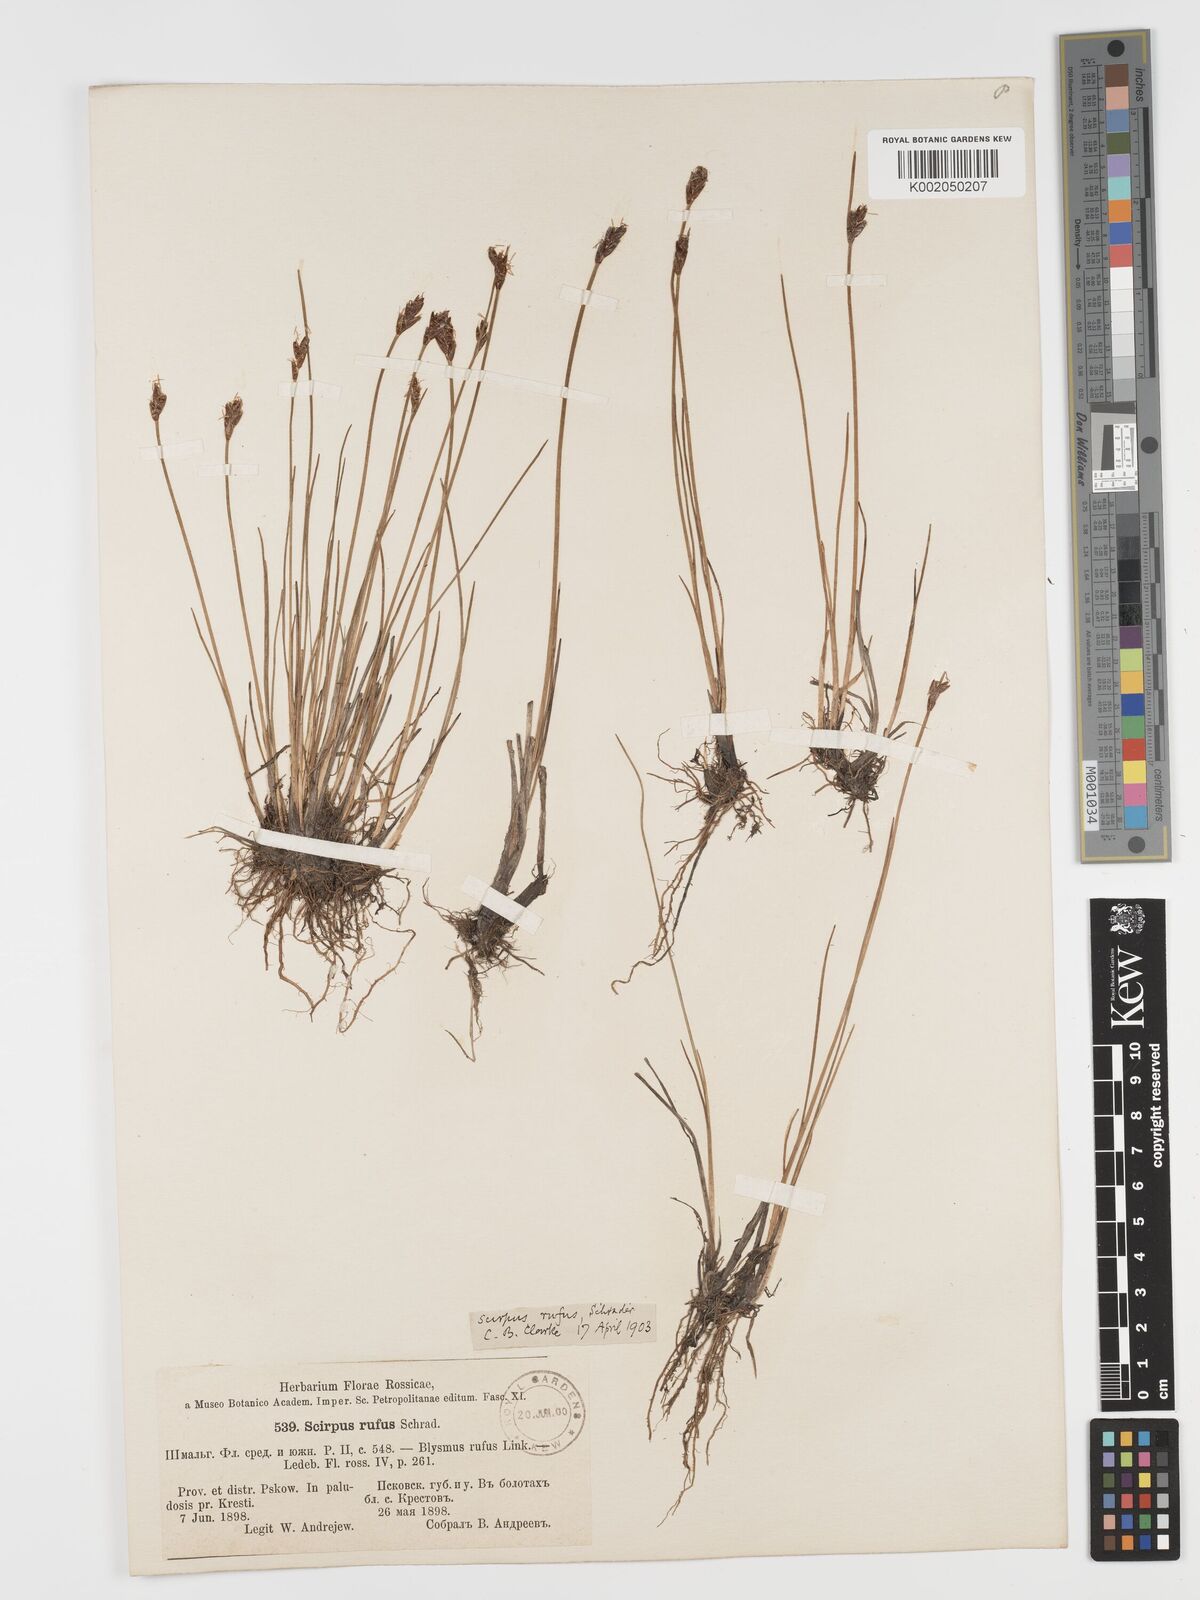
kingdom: Plantae
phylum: Tracheophyta
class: Liliopsida
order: Poales
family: Cyperaceae
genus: Blysmus
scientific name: Blysmus rufus
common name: Saltmarsh flat-sedge
